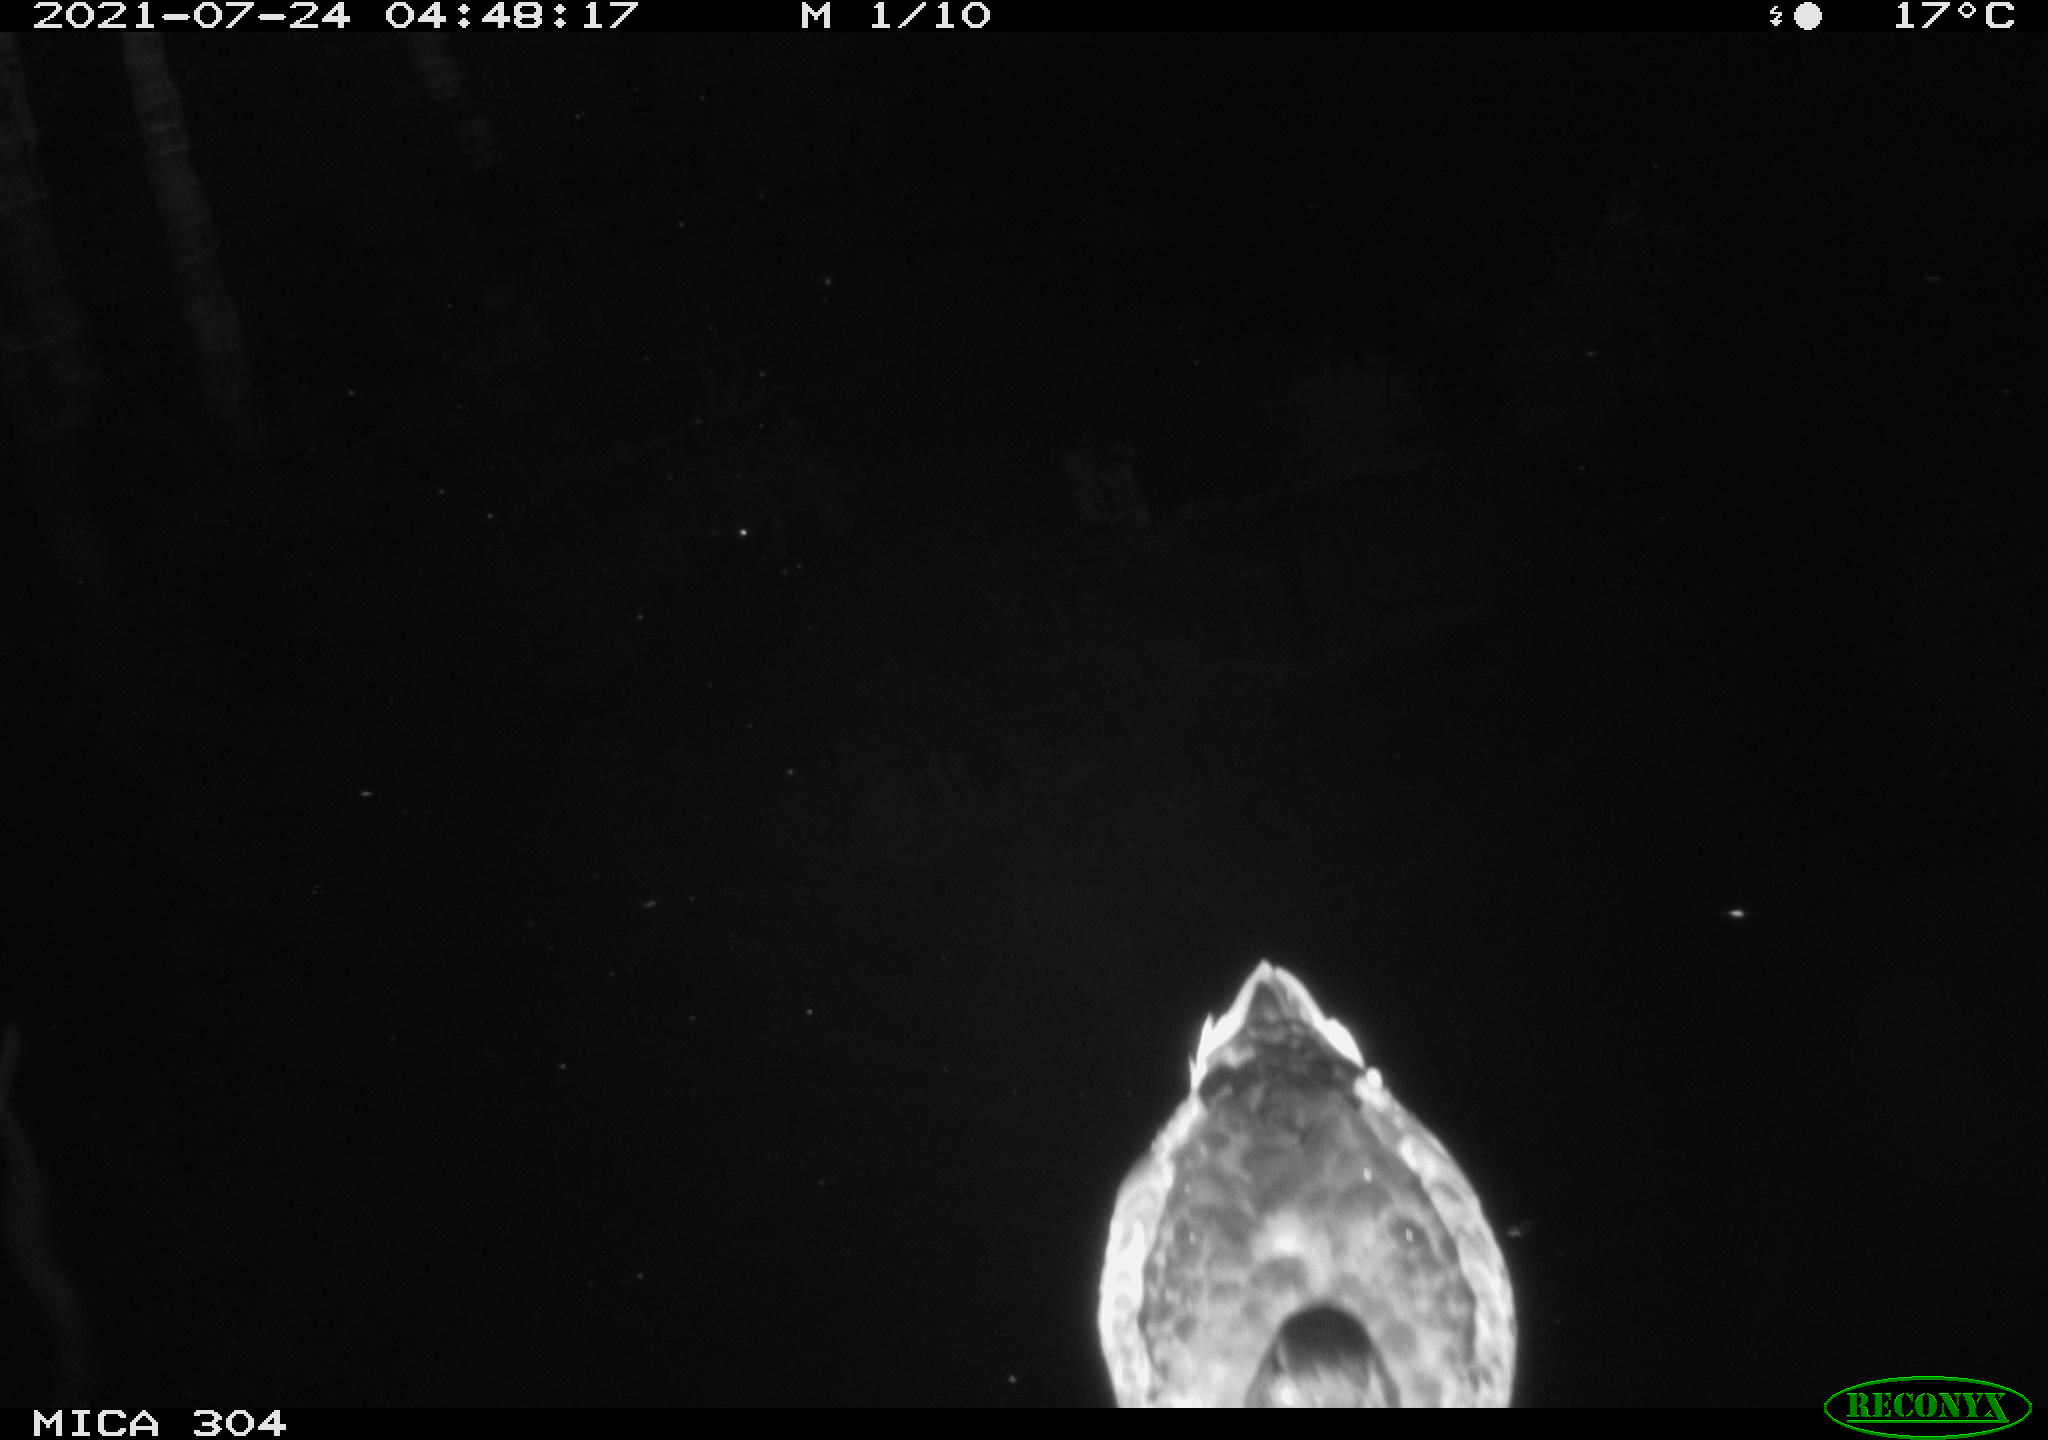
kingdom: Animalia
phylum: Chordata
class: Aves
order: Anseriformes
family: Anatidae
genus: Anas
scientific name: Anas platyrhynchos
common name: Mallard
